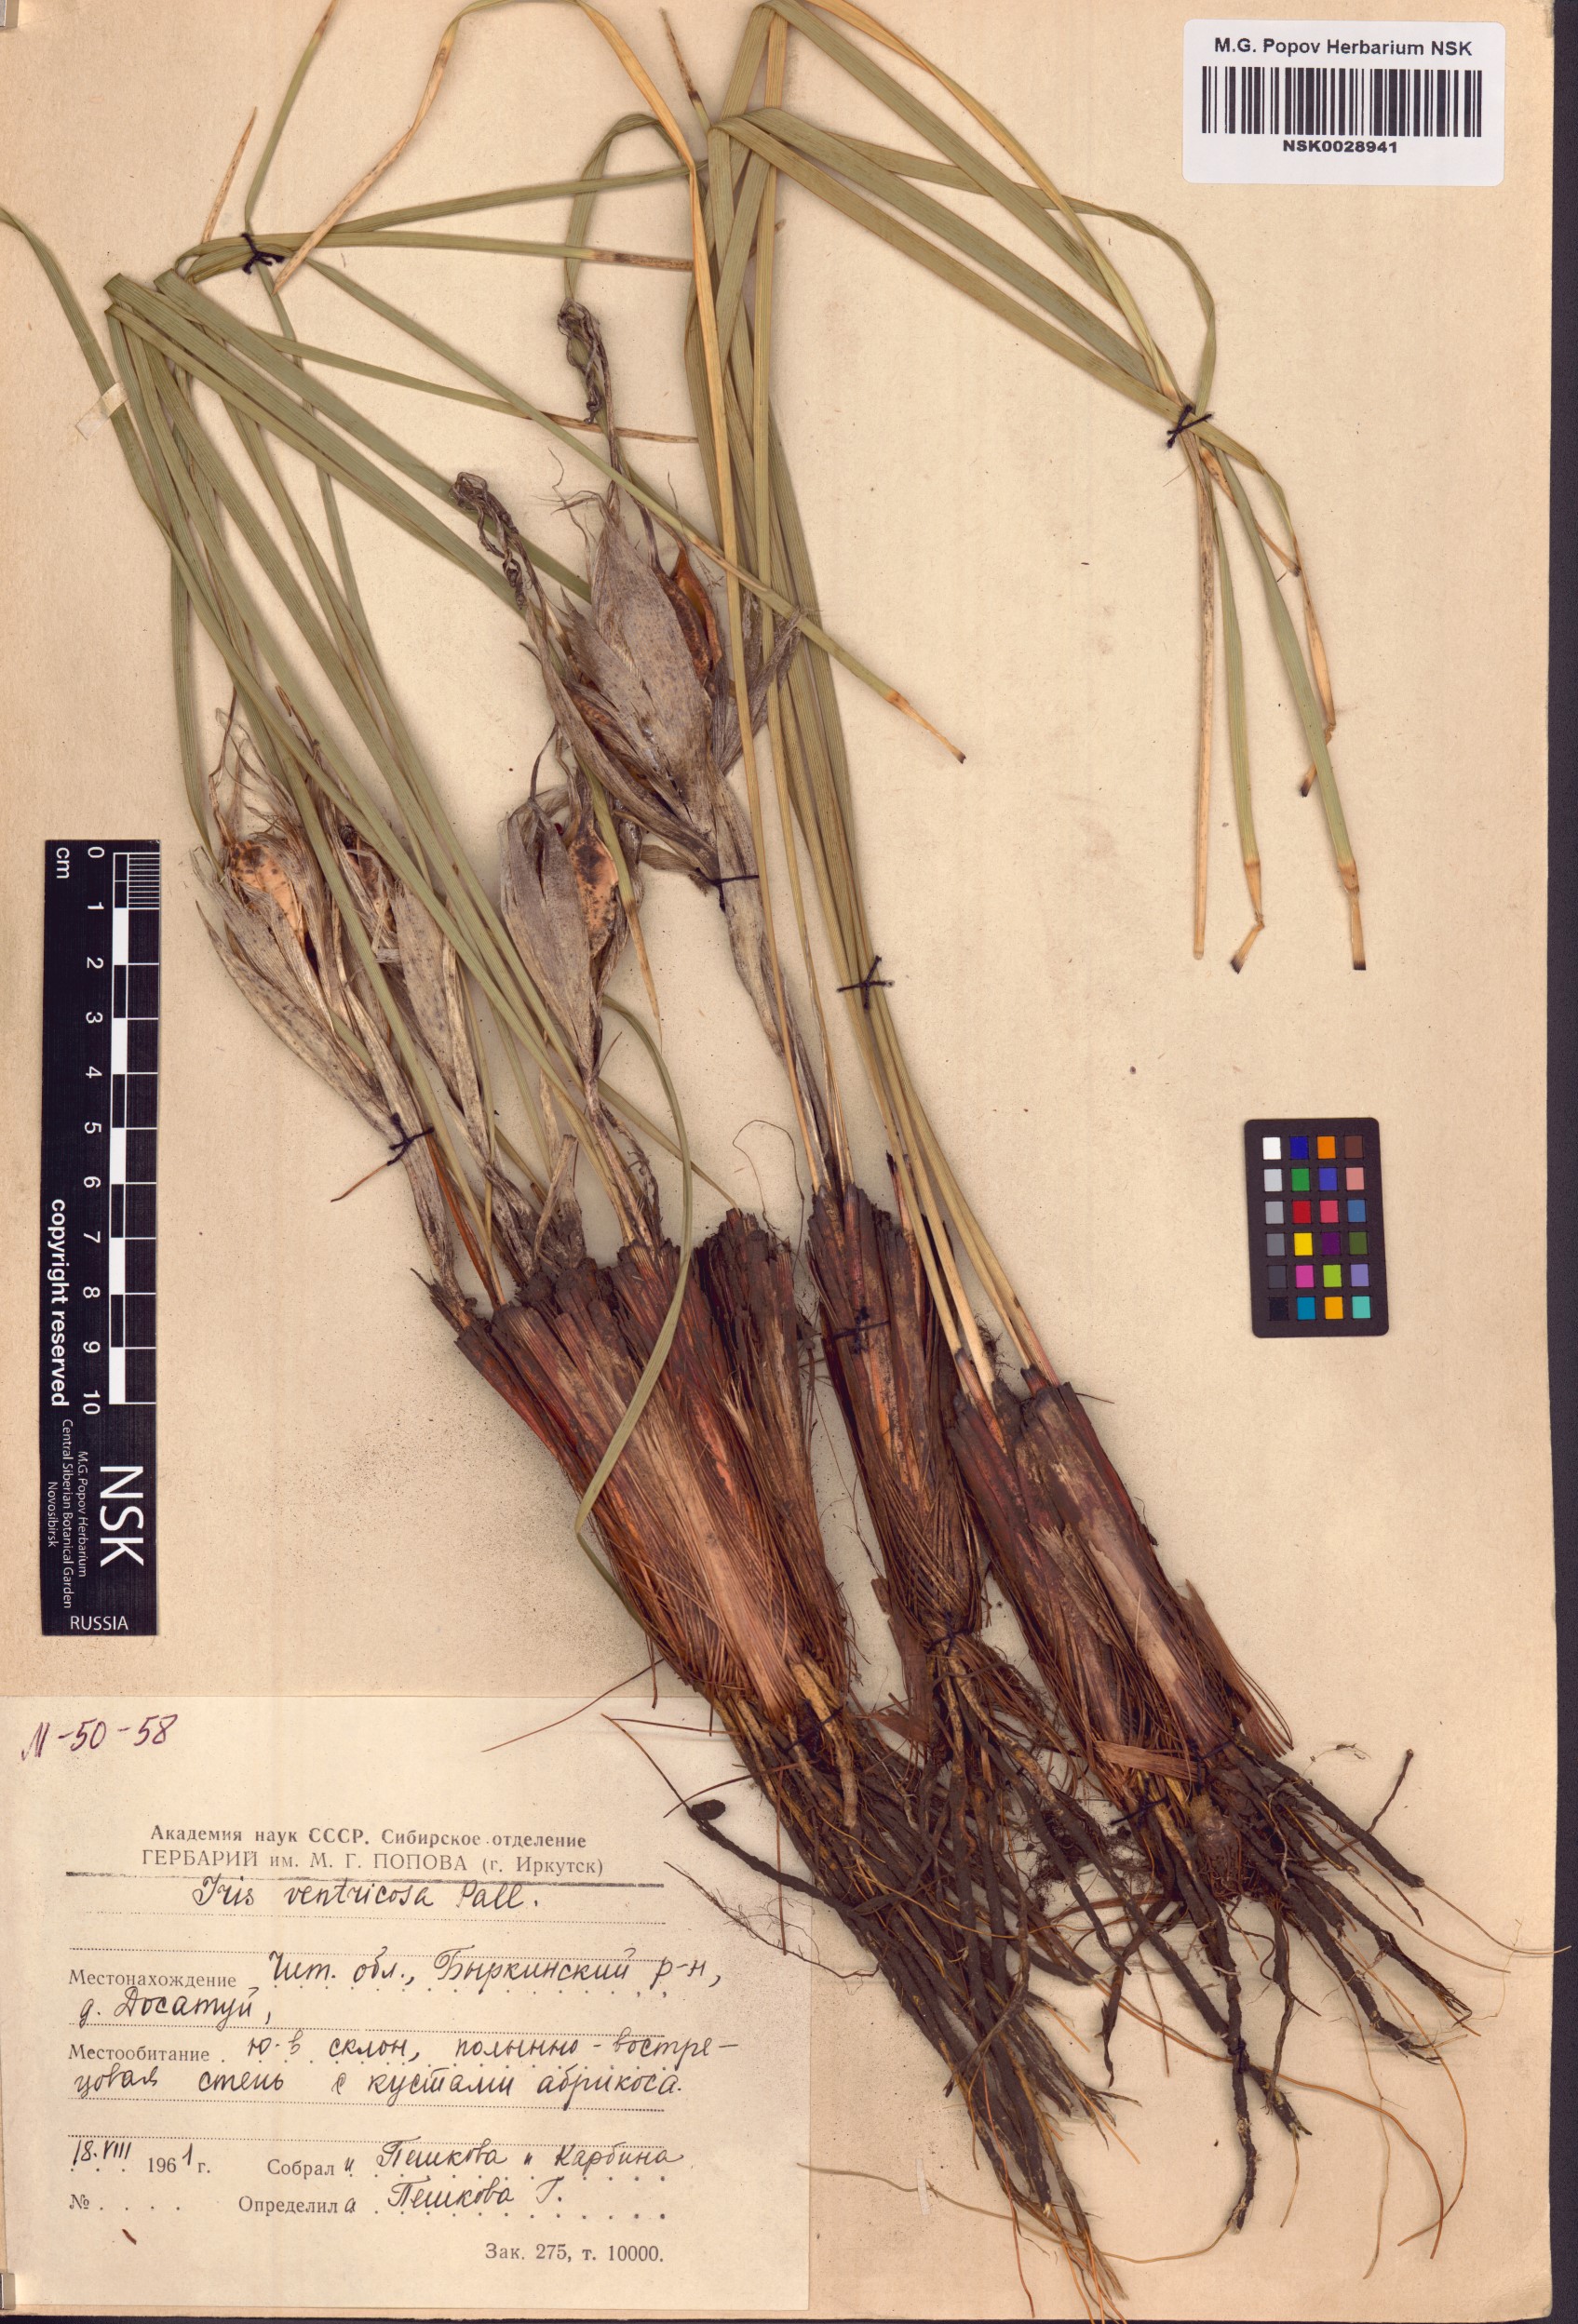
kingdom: Plantae
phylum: Tracheophyta
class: Liliopsida
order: Asparagales
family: Iridaceae
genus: Iris
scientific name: Iris ventricosa
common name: Purple-flower iris
